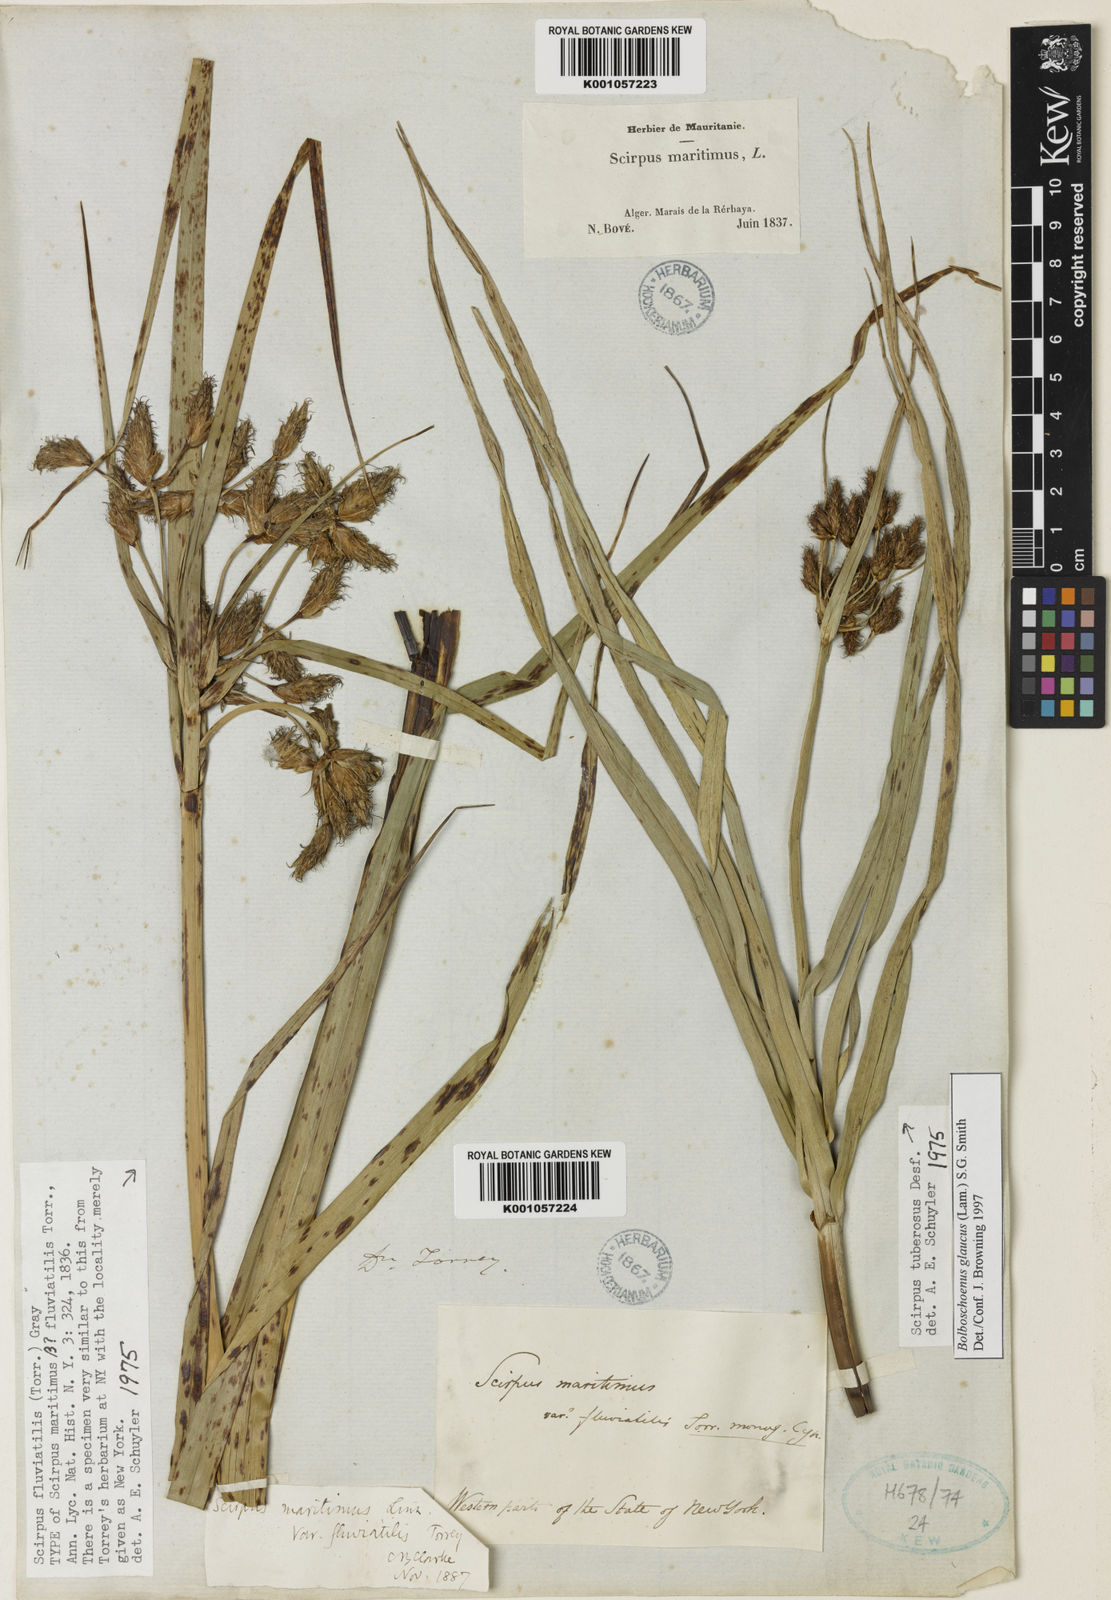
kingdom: Plantae
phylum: Tracheophyta
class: Liliopsida
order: Poales
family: Cyperaceae
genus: Bolboschoenus
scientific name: Bolboschoenus
